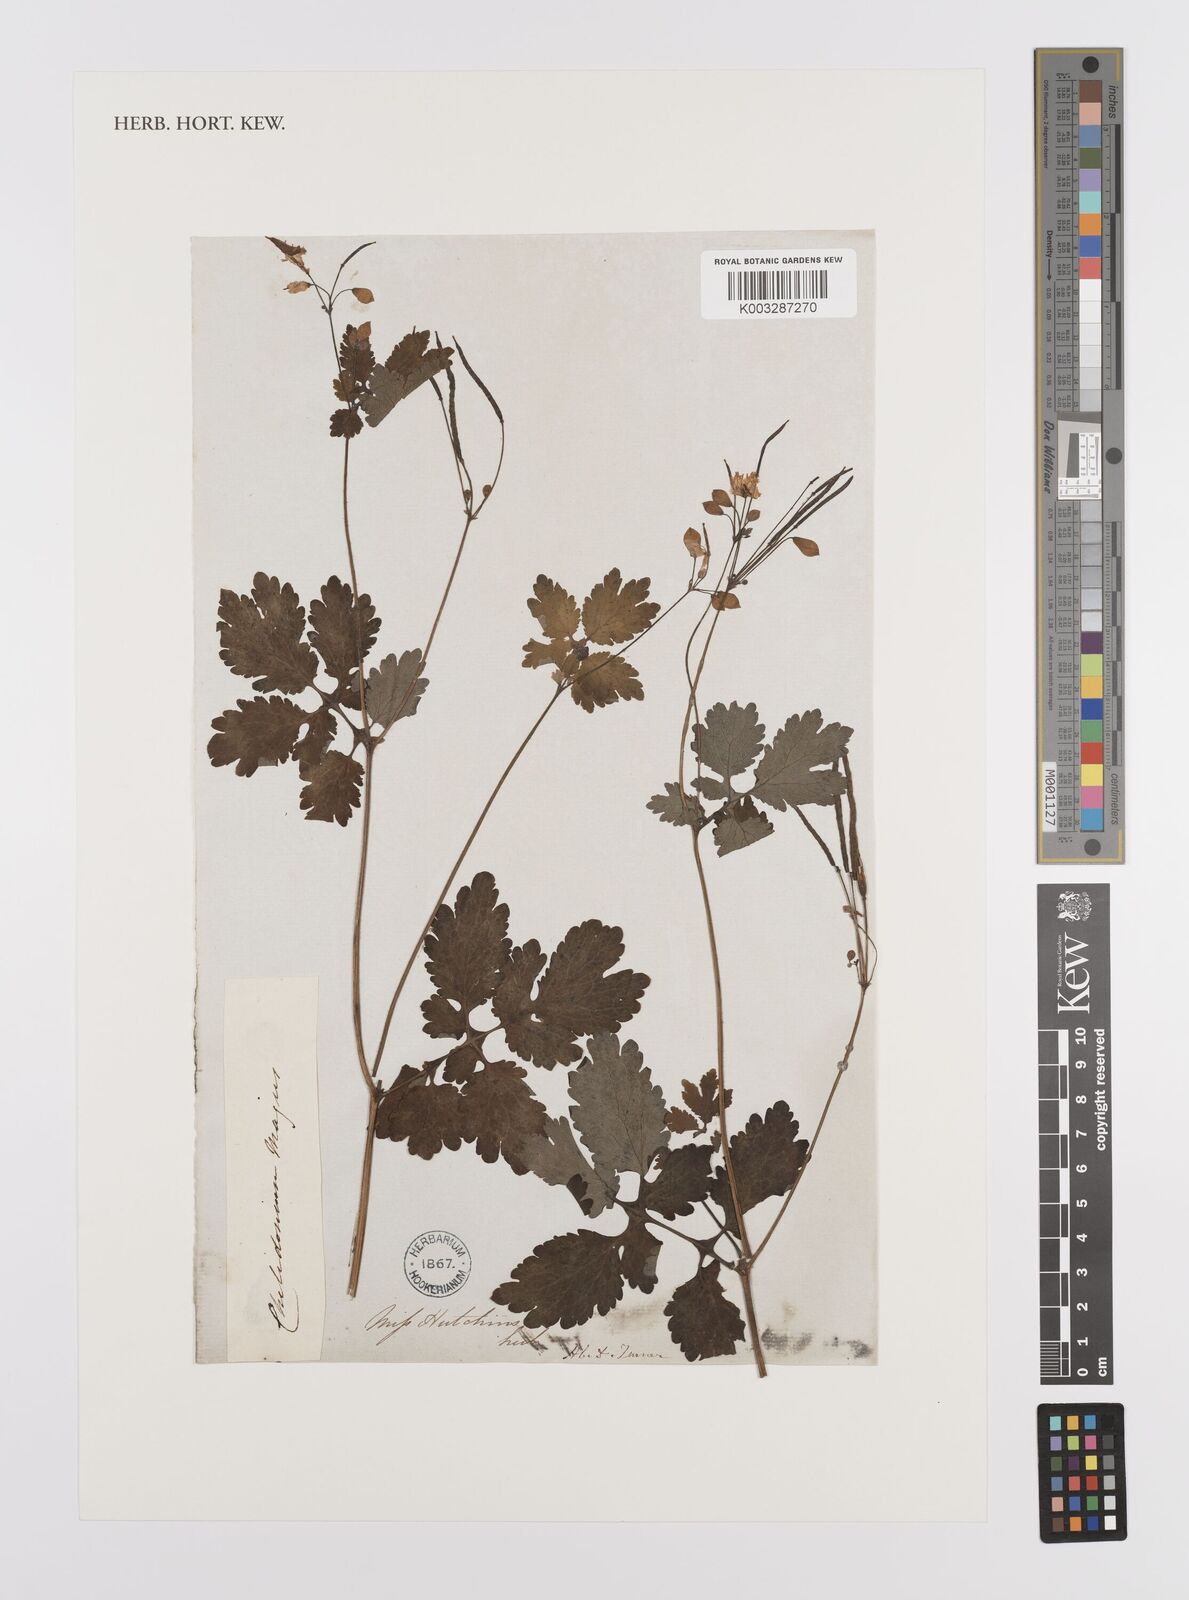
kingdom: Plantae
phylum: Tracheophyta
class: Magnoliopsida
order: Ranunculales
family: Papaveraceae
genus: Chelidonium
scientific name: Chelidonium majus
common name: Greater celandine
